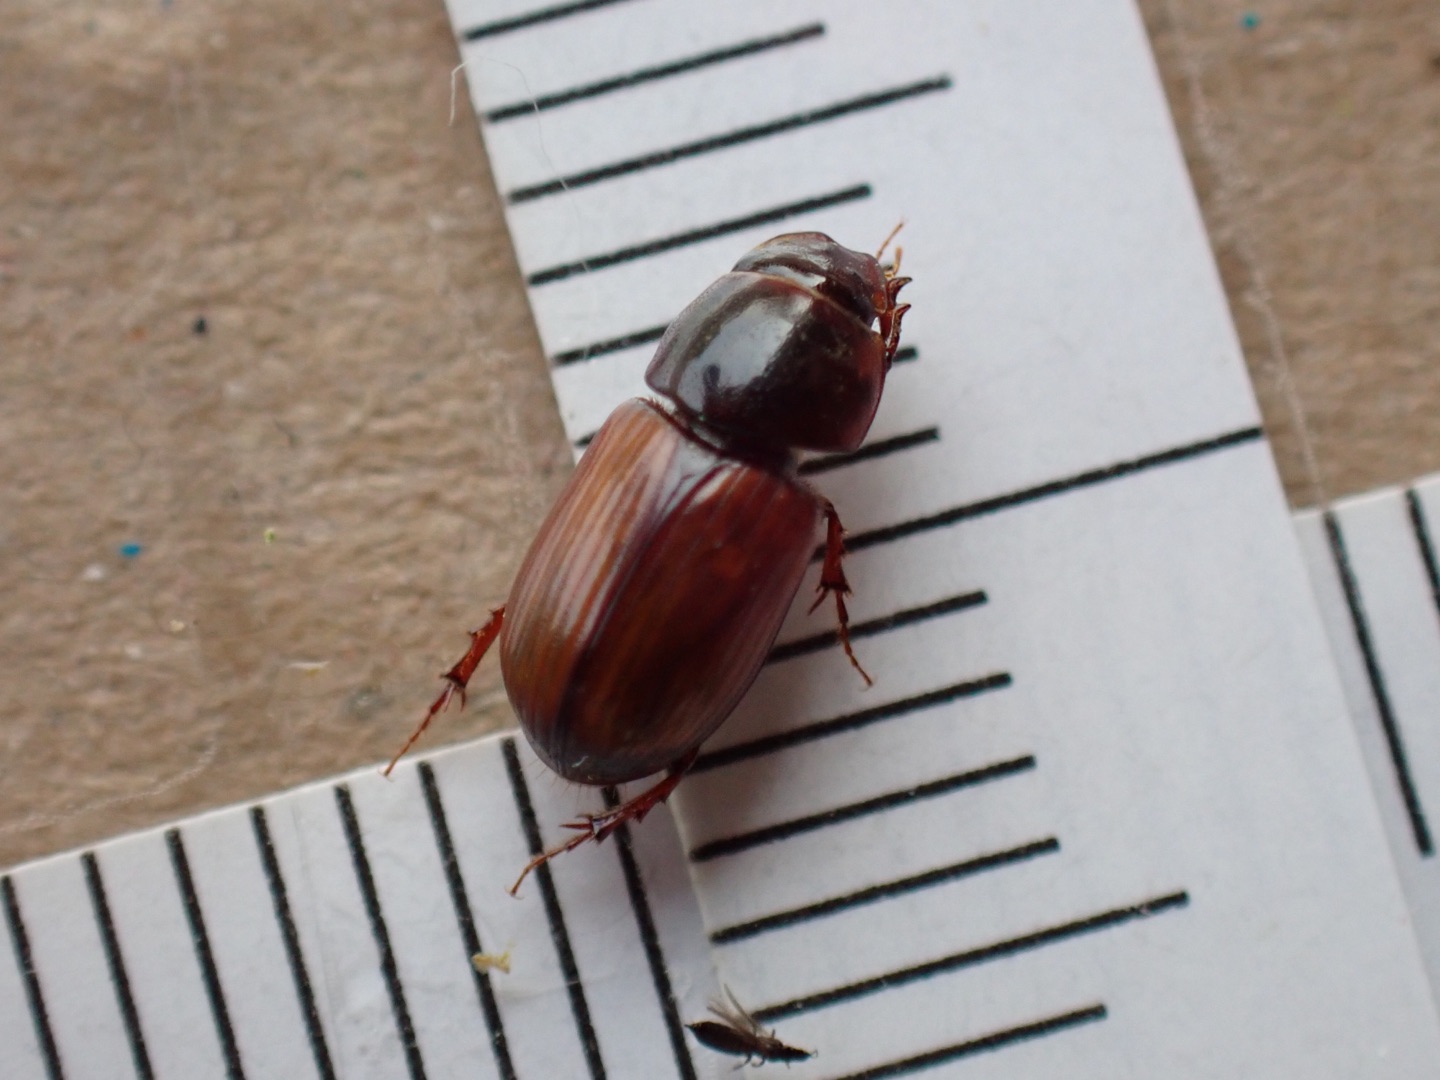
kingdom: Animalia
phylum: Arthropoda
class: Insecta
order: Coleoptera
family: Scarabaeidae
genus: Bodilopsis
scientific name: Bodilopsis rufus
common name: Mahognibrun møgbille
